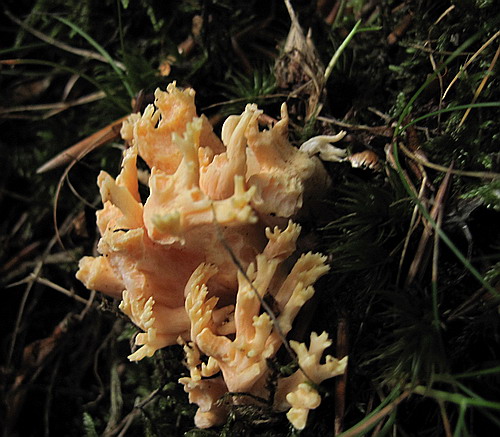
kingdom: Fungi
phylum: Basidiomycota
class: Agaricomycetes
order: Gomphales
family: Gomphaceae
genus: Ramaria
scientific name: Ramaria fagetorum
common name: abrikos-koralsvamp
